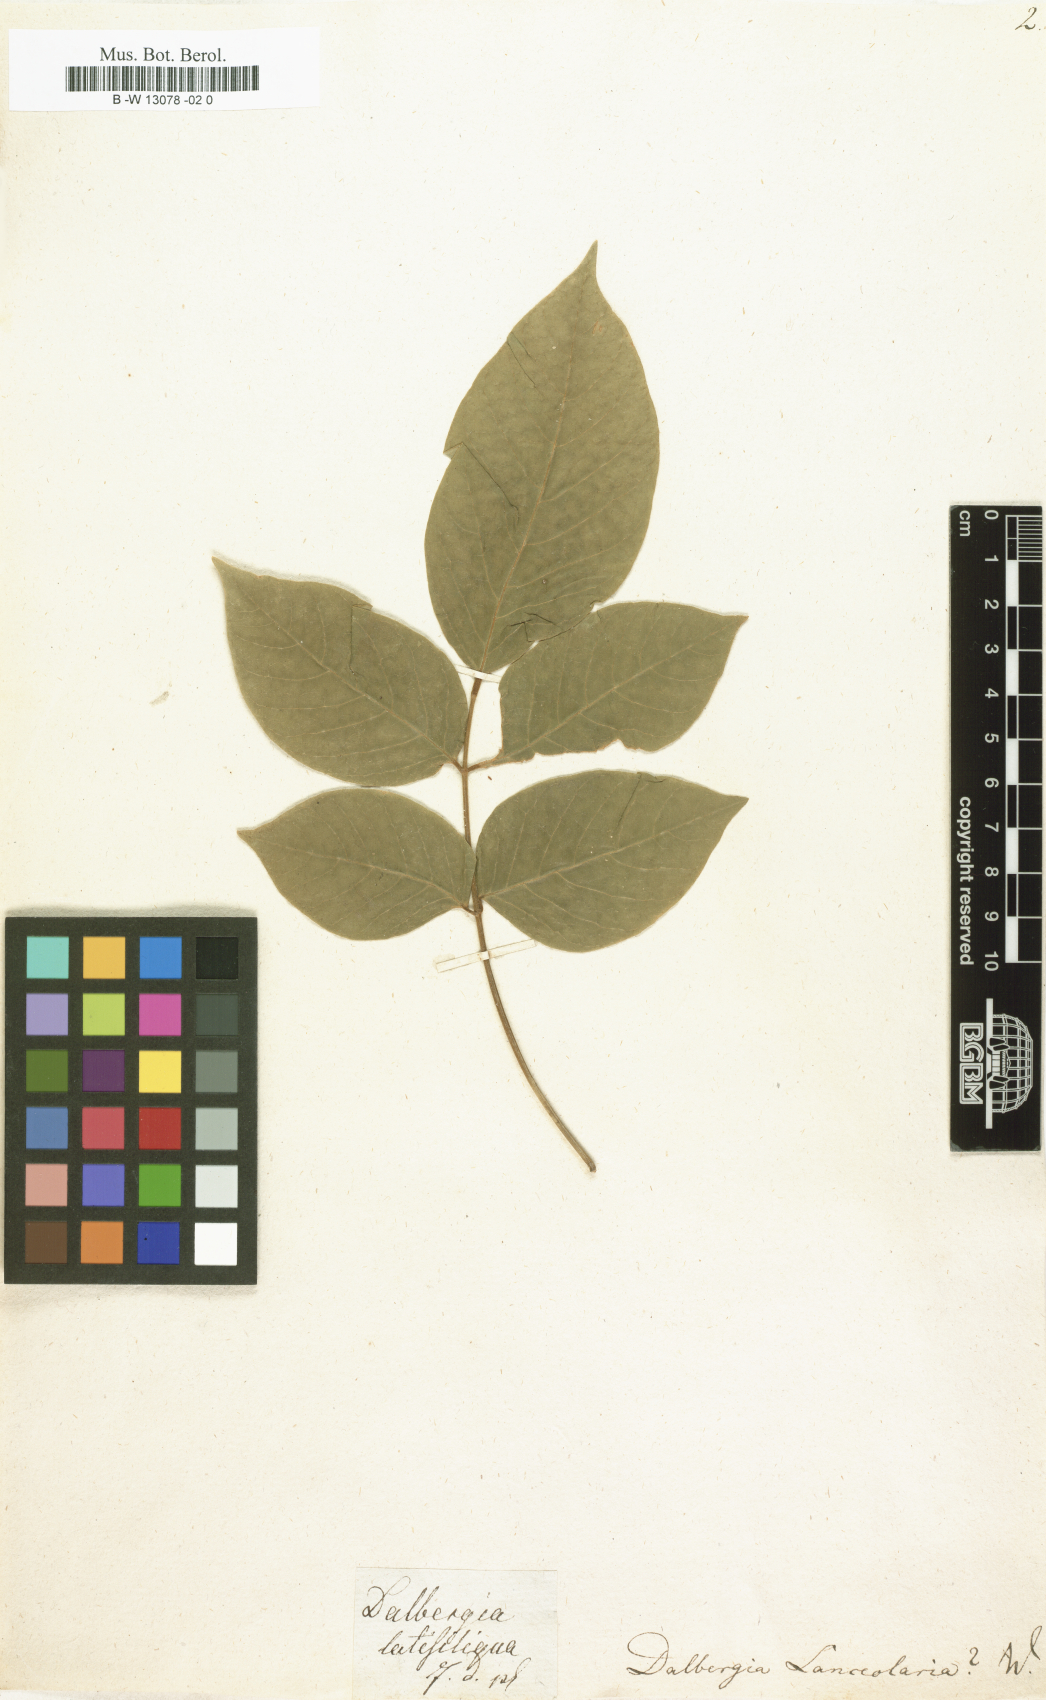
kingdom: Plantae
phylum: Tracheophyta
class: Magnoliopsida
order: Fabales
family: Fabaceae
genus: Dalbergia
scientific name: Dalbergia lanceolaria
